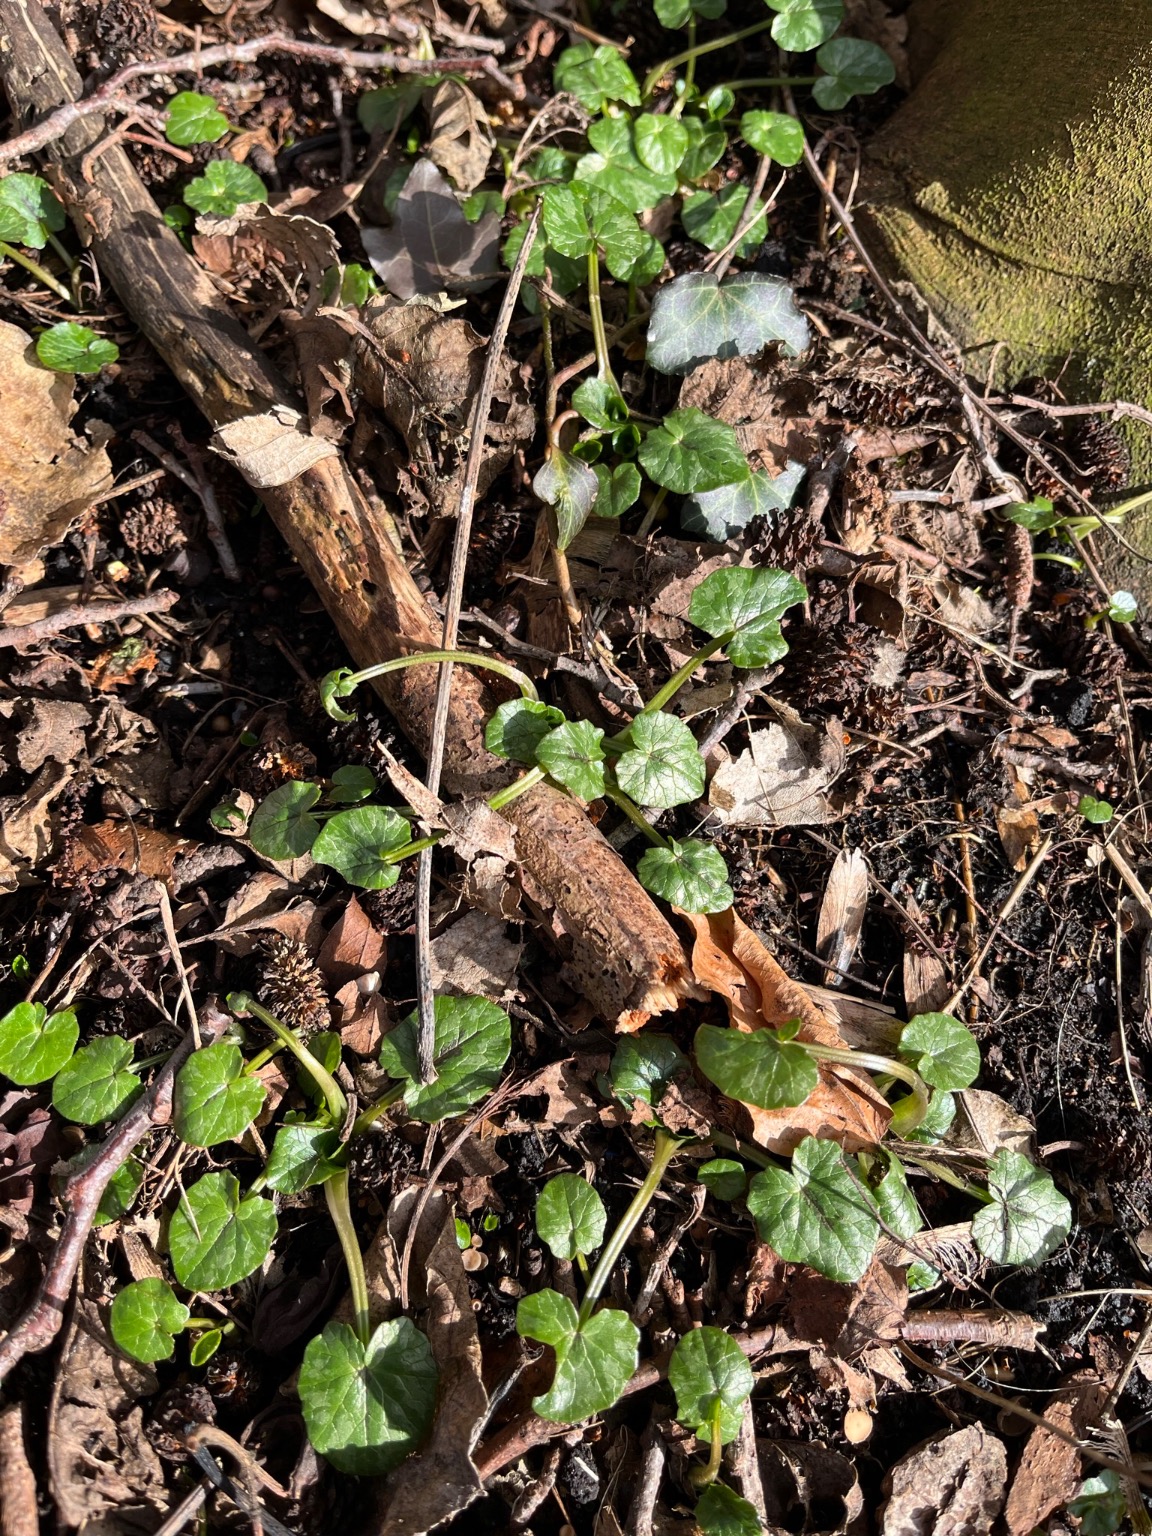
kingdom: Plantae
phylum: Tracheophyta
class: Magnoliopsida
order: Ranunculales
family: Ranunculaceae
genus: Ficaria
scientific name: Ficaria verna
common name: Vorterod
